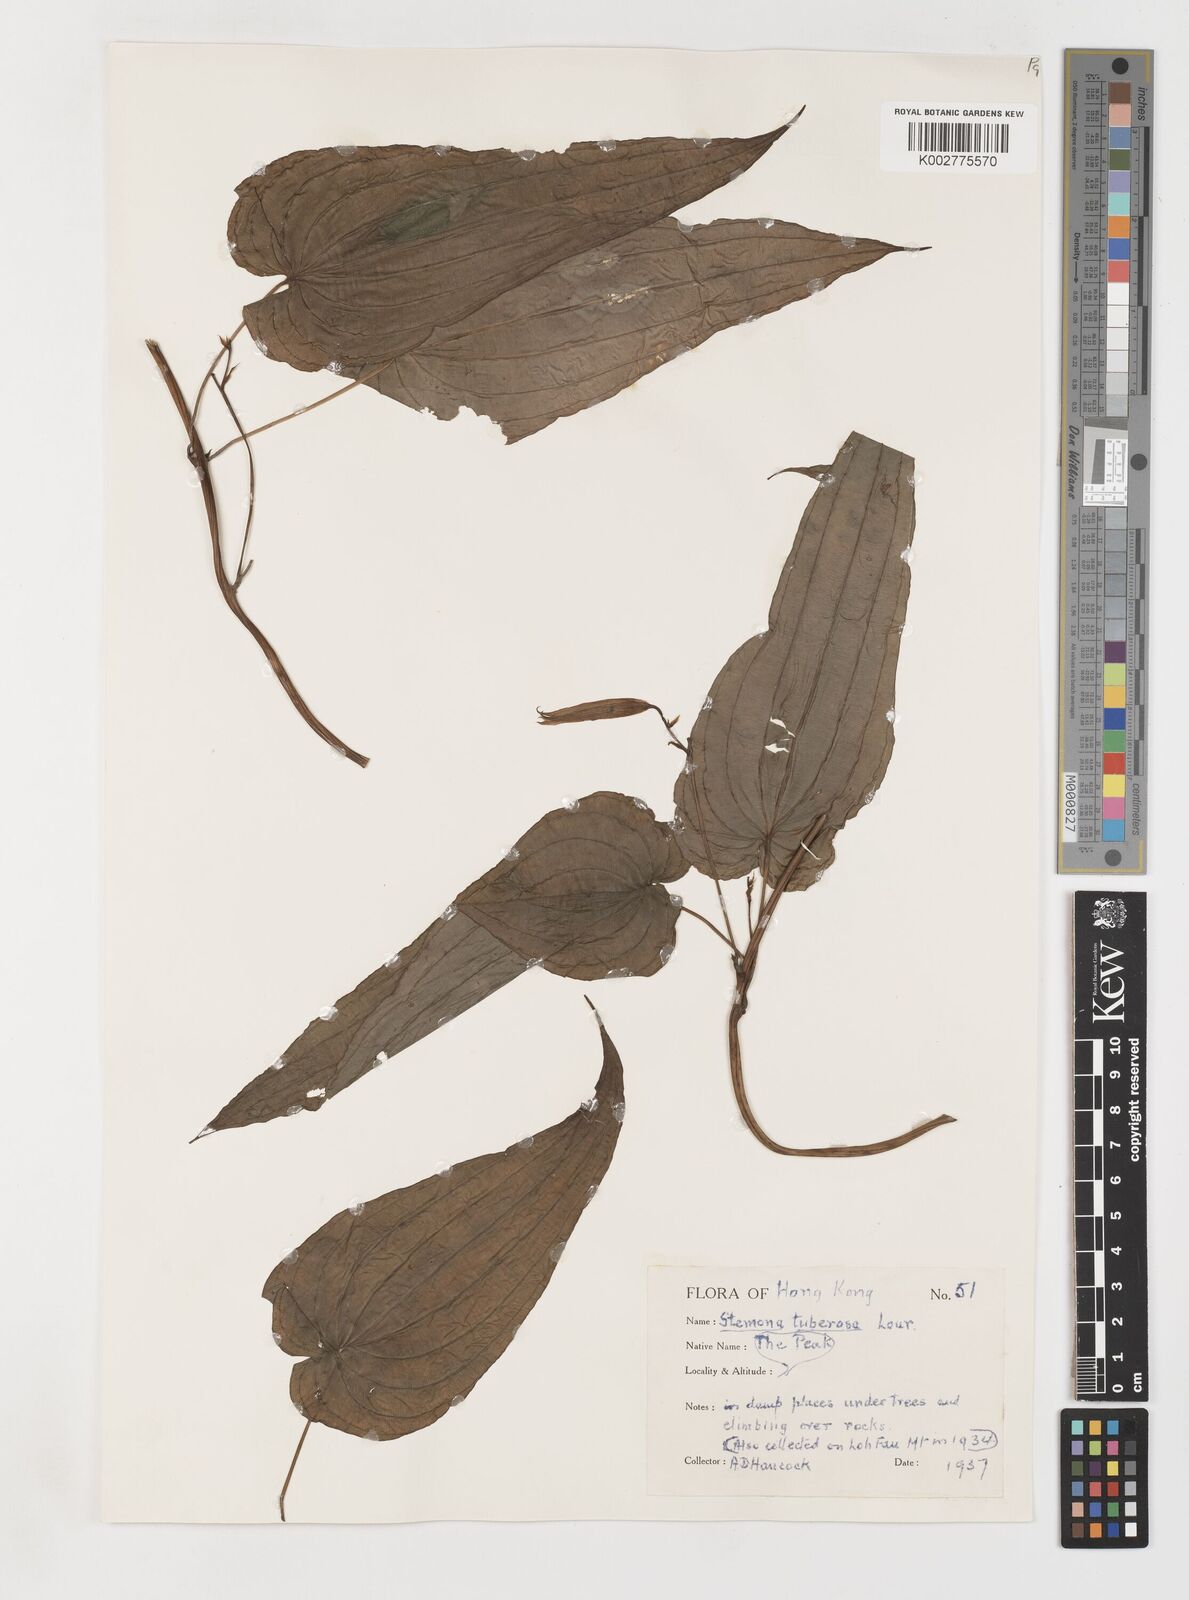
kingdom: Plantae
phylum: Tracheophyta
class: Liliopsida
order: Pandanales
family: Stemonaceae
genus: Stemona
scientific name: Stemona tuberosa
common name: Stemona
